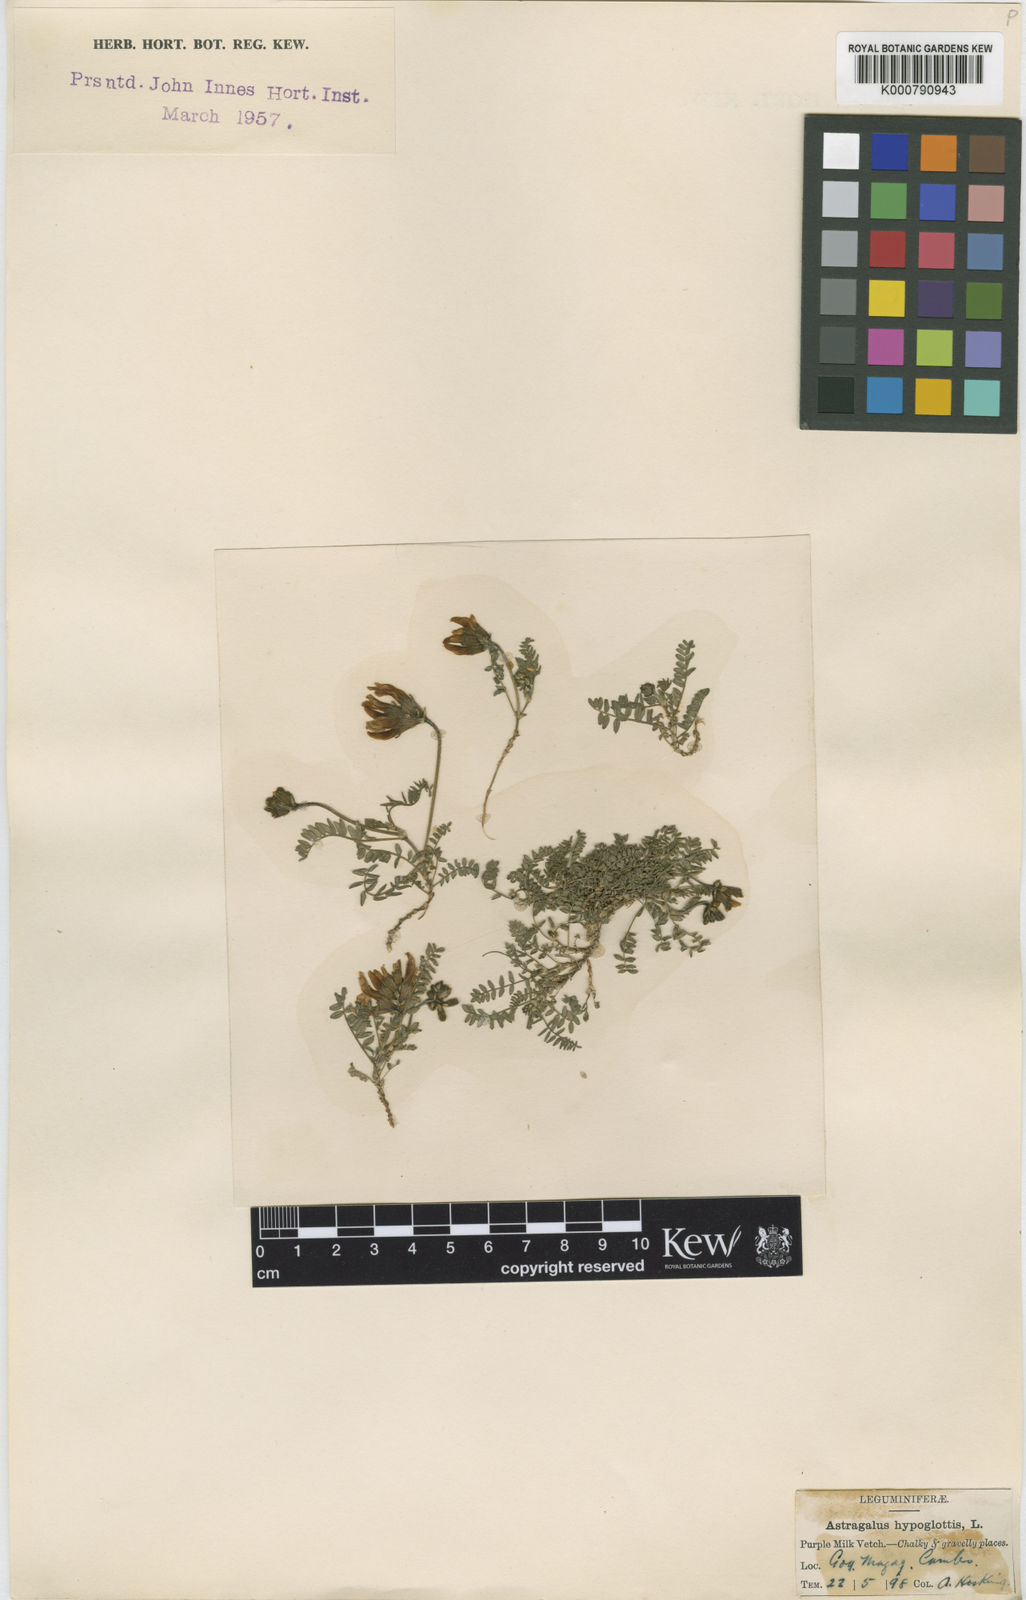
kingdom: Plantae
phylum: Tracheophyta
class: Magnoliopsida
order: Fabales
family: Fabaceae
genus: Astragalus
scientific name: Astragalus danicus
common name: Purple milk-vetch
